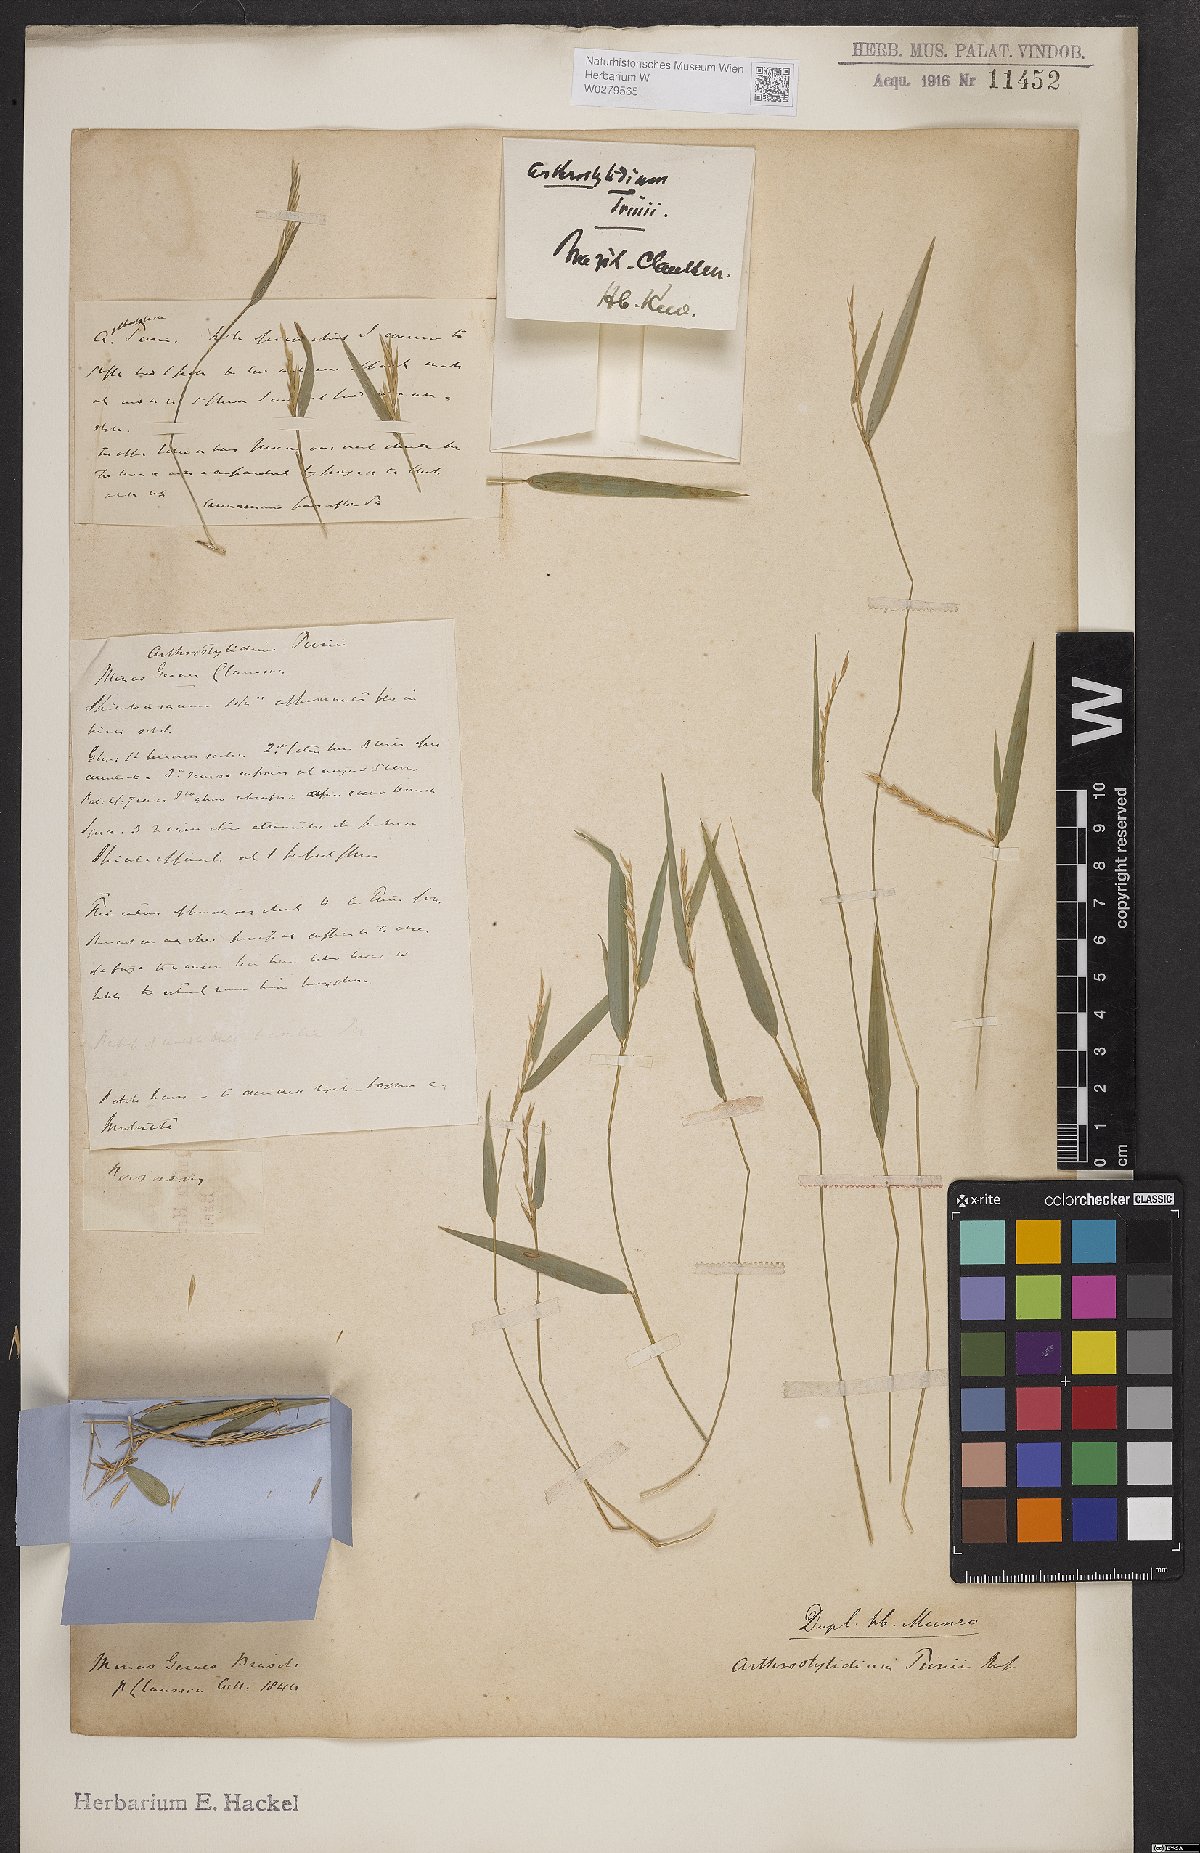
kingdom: Plantae
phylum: Tracheophyta
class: Liliopsida
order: Poales
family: Poaceae
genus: Rhipidocladum
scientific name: Rhipidocladum parviflorum
